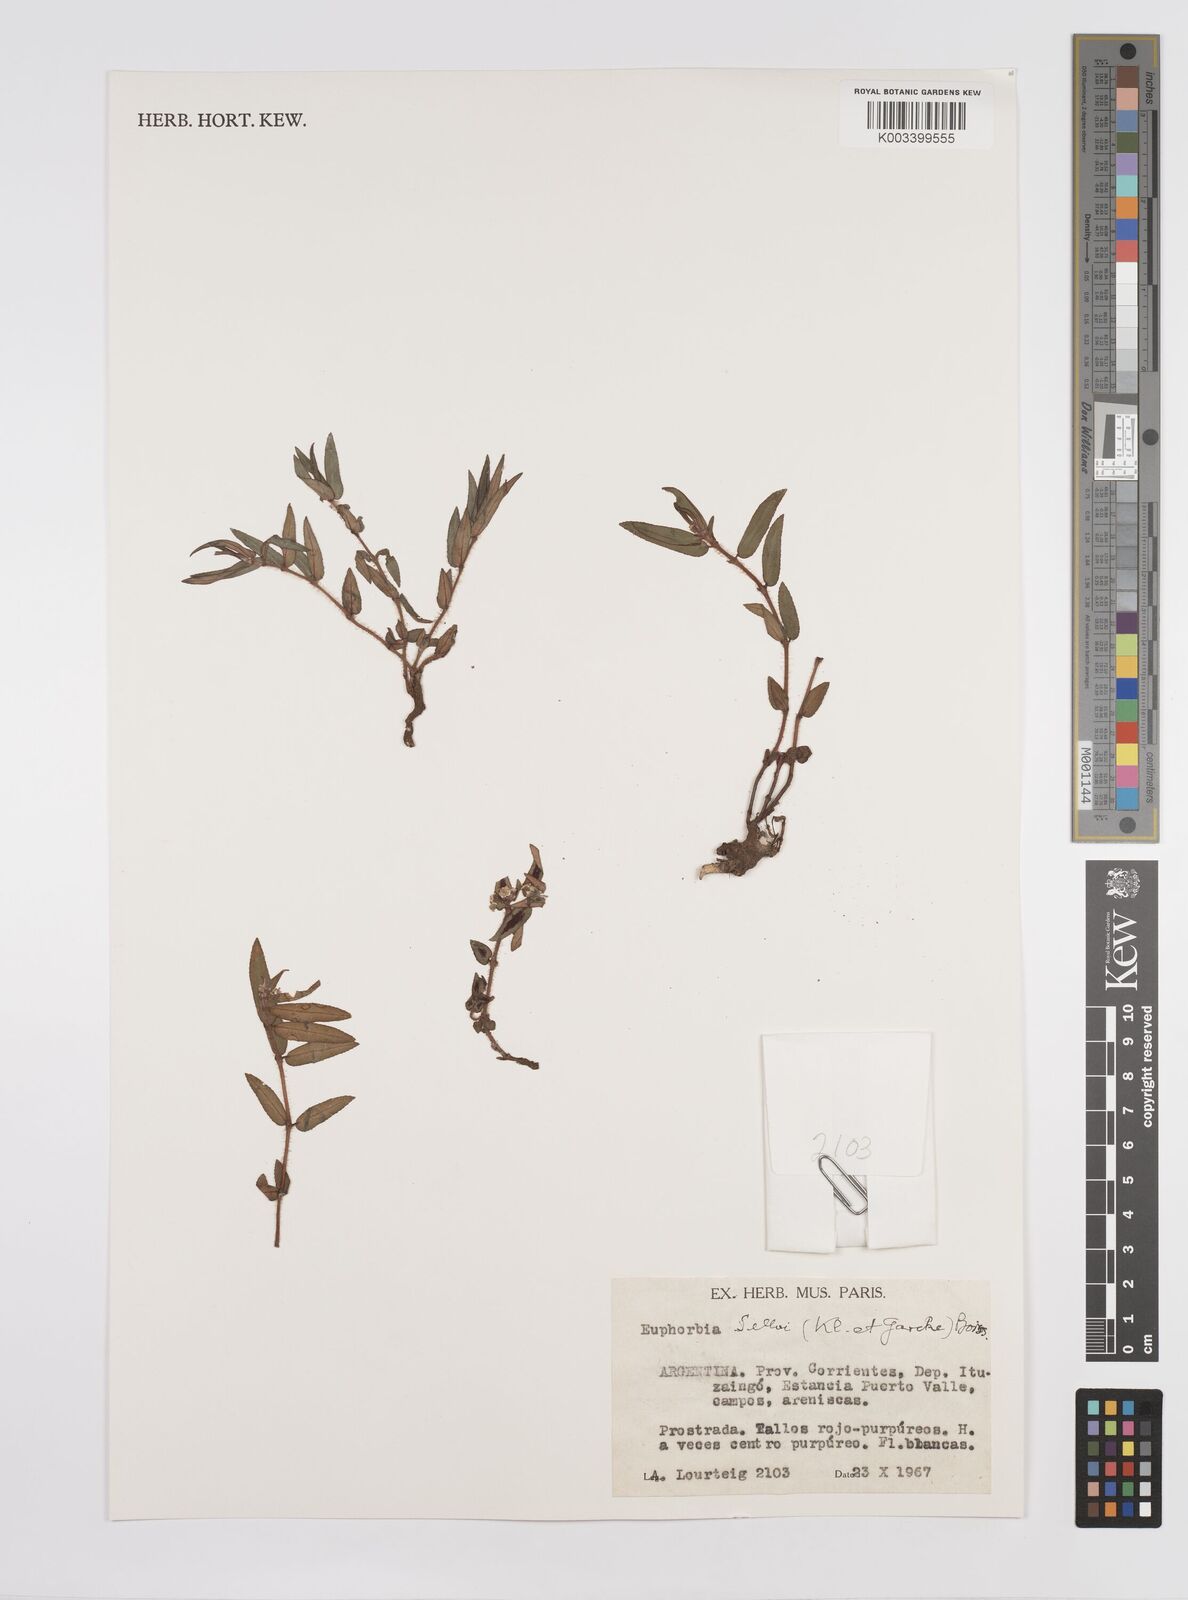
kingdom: Plantae
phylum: Tracheophyta
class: Magnoliopsida
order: Malpighiales
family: Euphorbiaceae
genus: Euphorbia
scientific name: Euphorbia selloi
